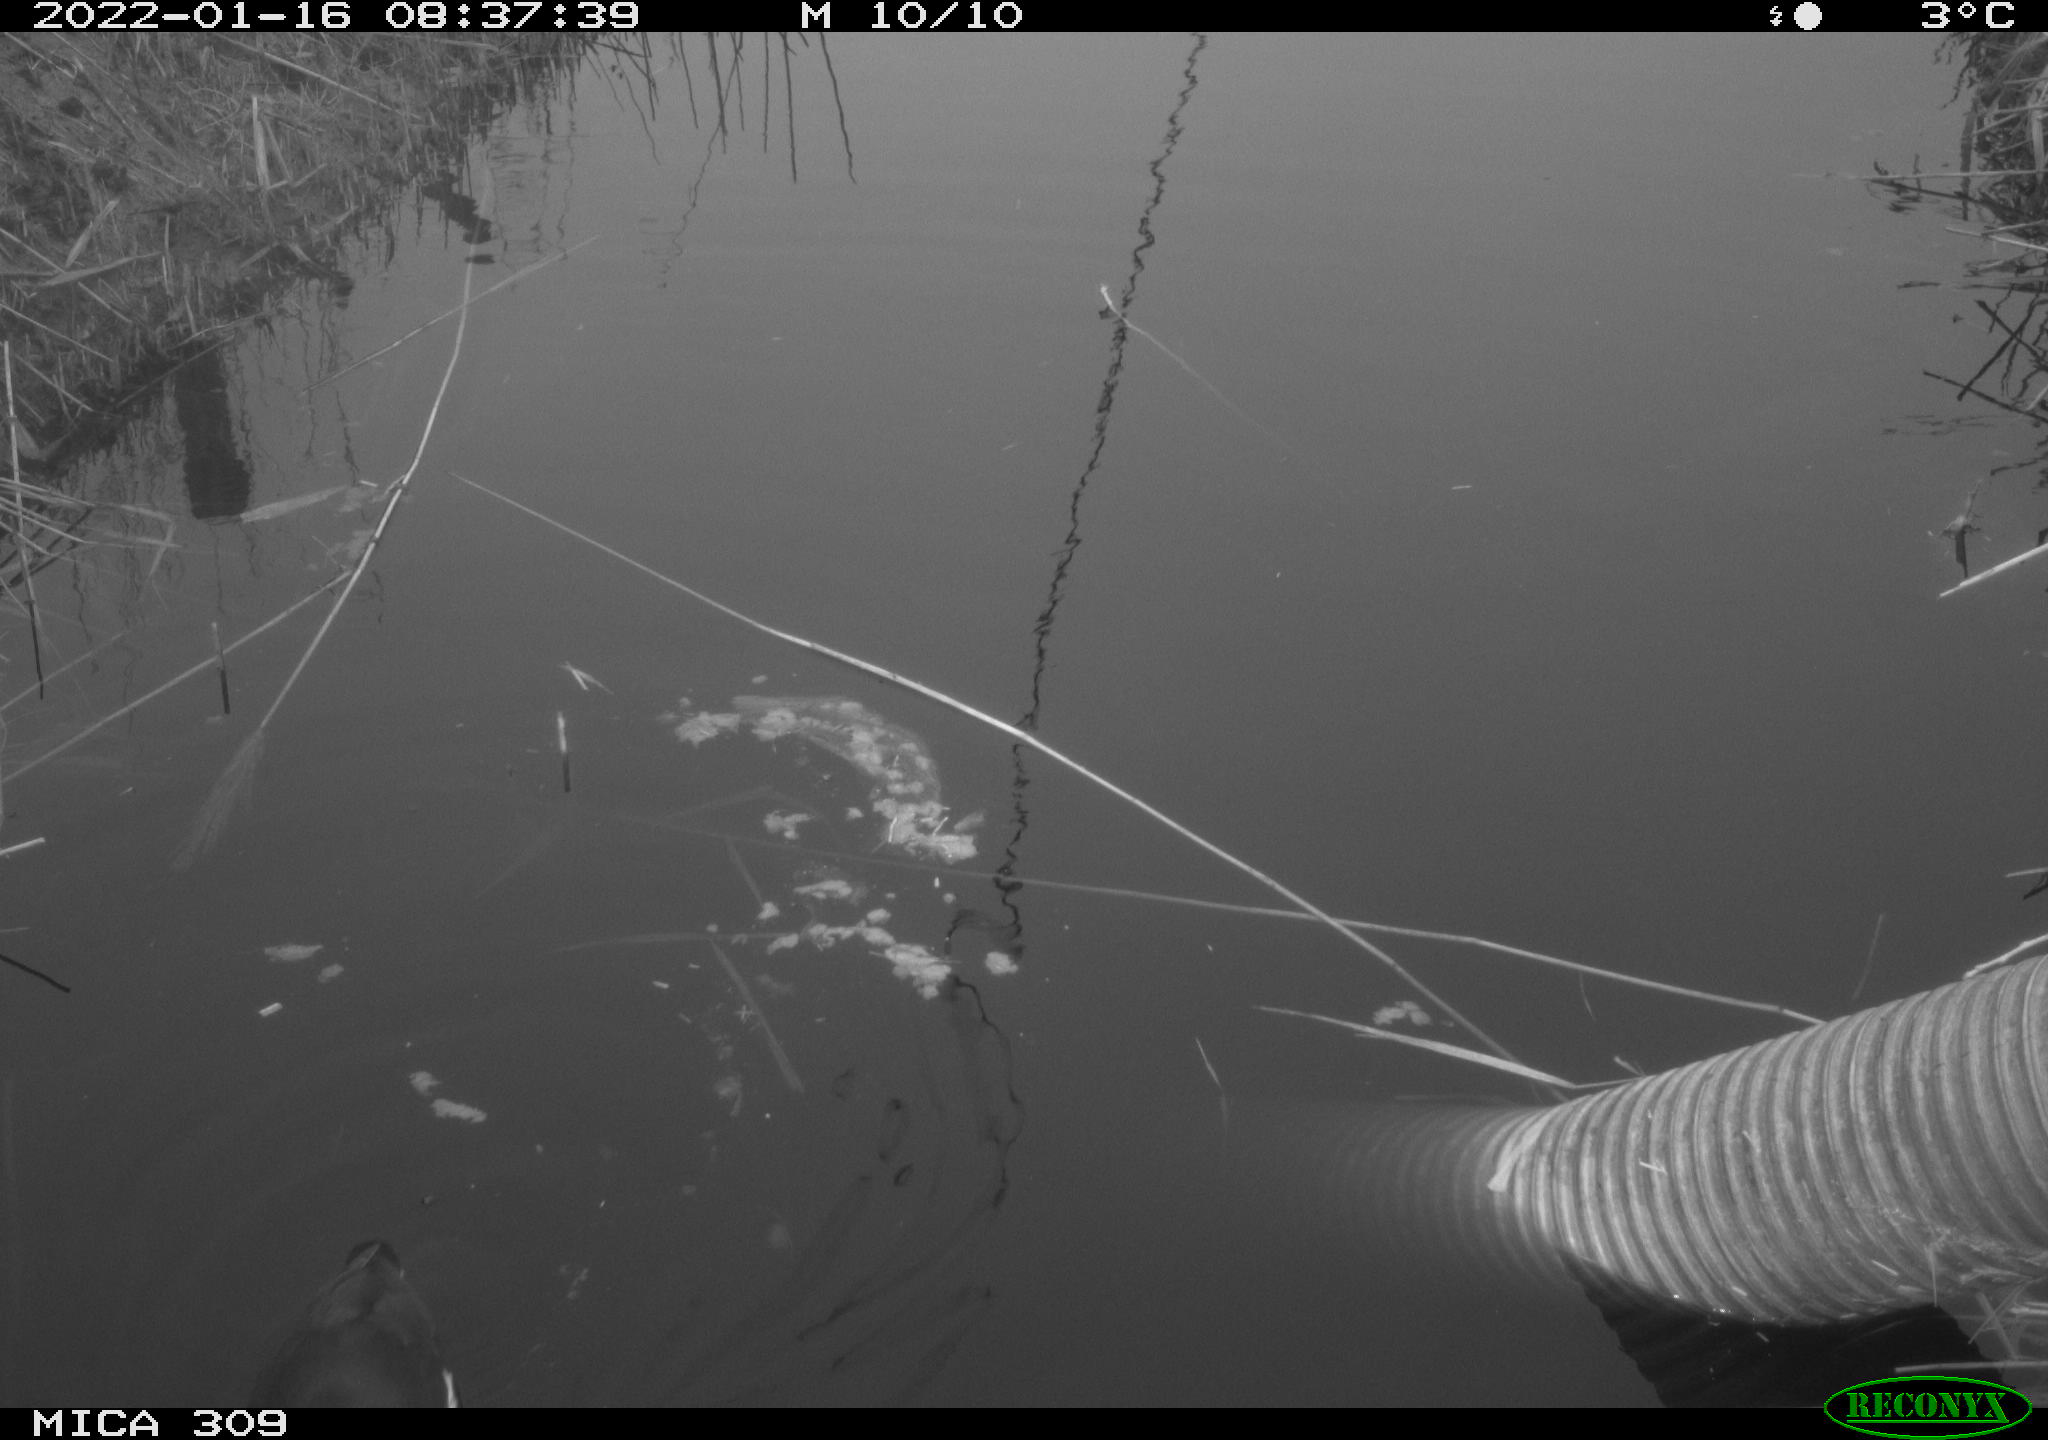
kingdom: Animalia
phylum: Chordata
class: Aves
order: Gruiformes
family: Rallidae
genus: Fulica
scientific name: Fulica atra
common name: Eurasian coot
